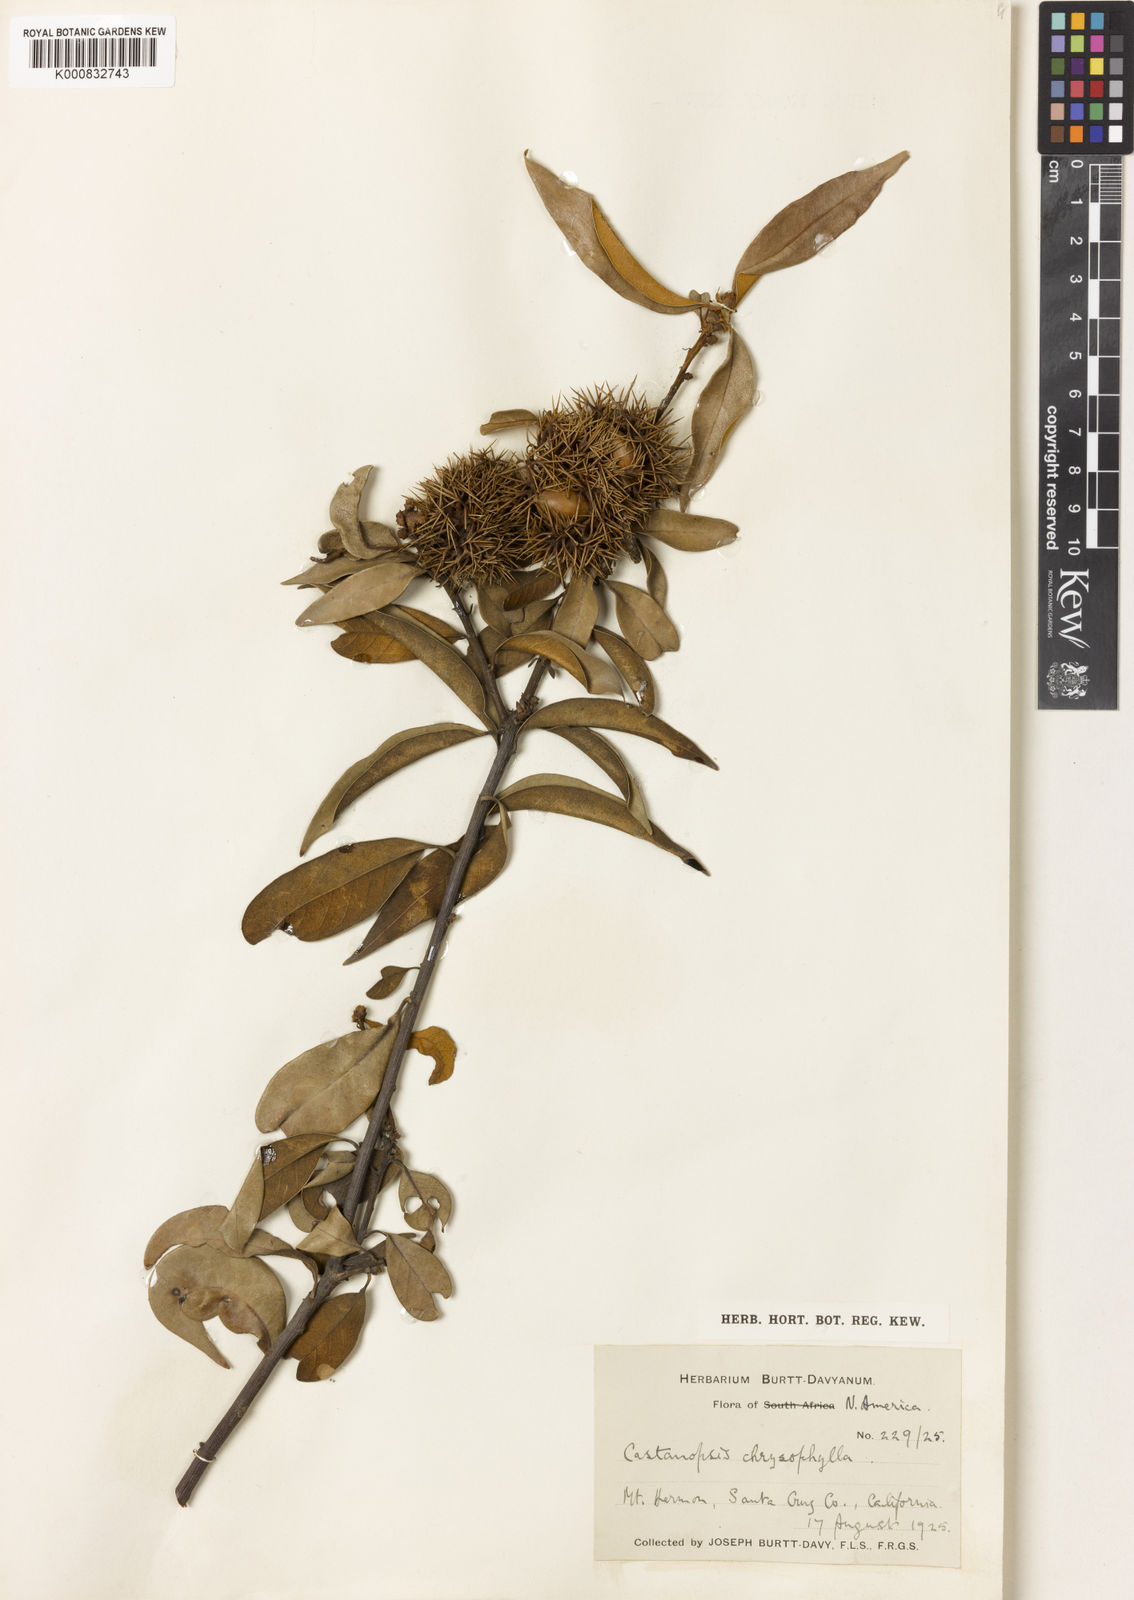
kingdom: Plantae
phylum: Tracheophyta
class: Magnoliopsida
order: Fagales
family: Fagaceae
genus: Chrysolepis
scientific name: Chrysolepis chrysophylla
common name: Giant chinquapin
